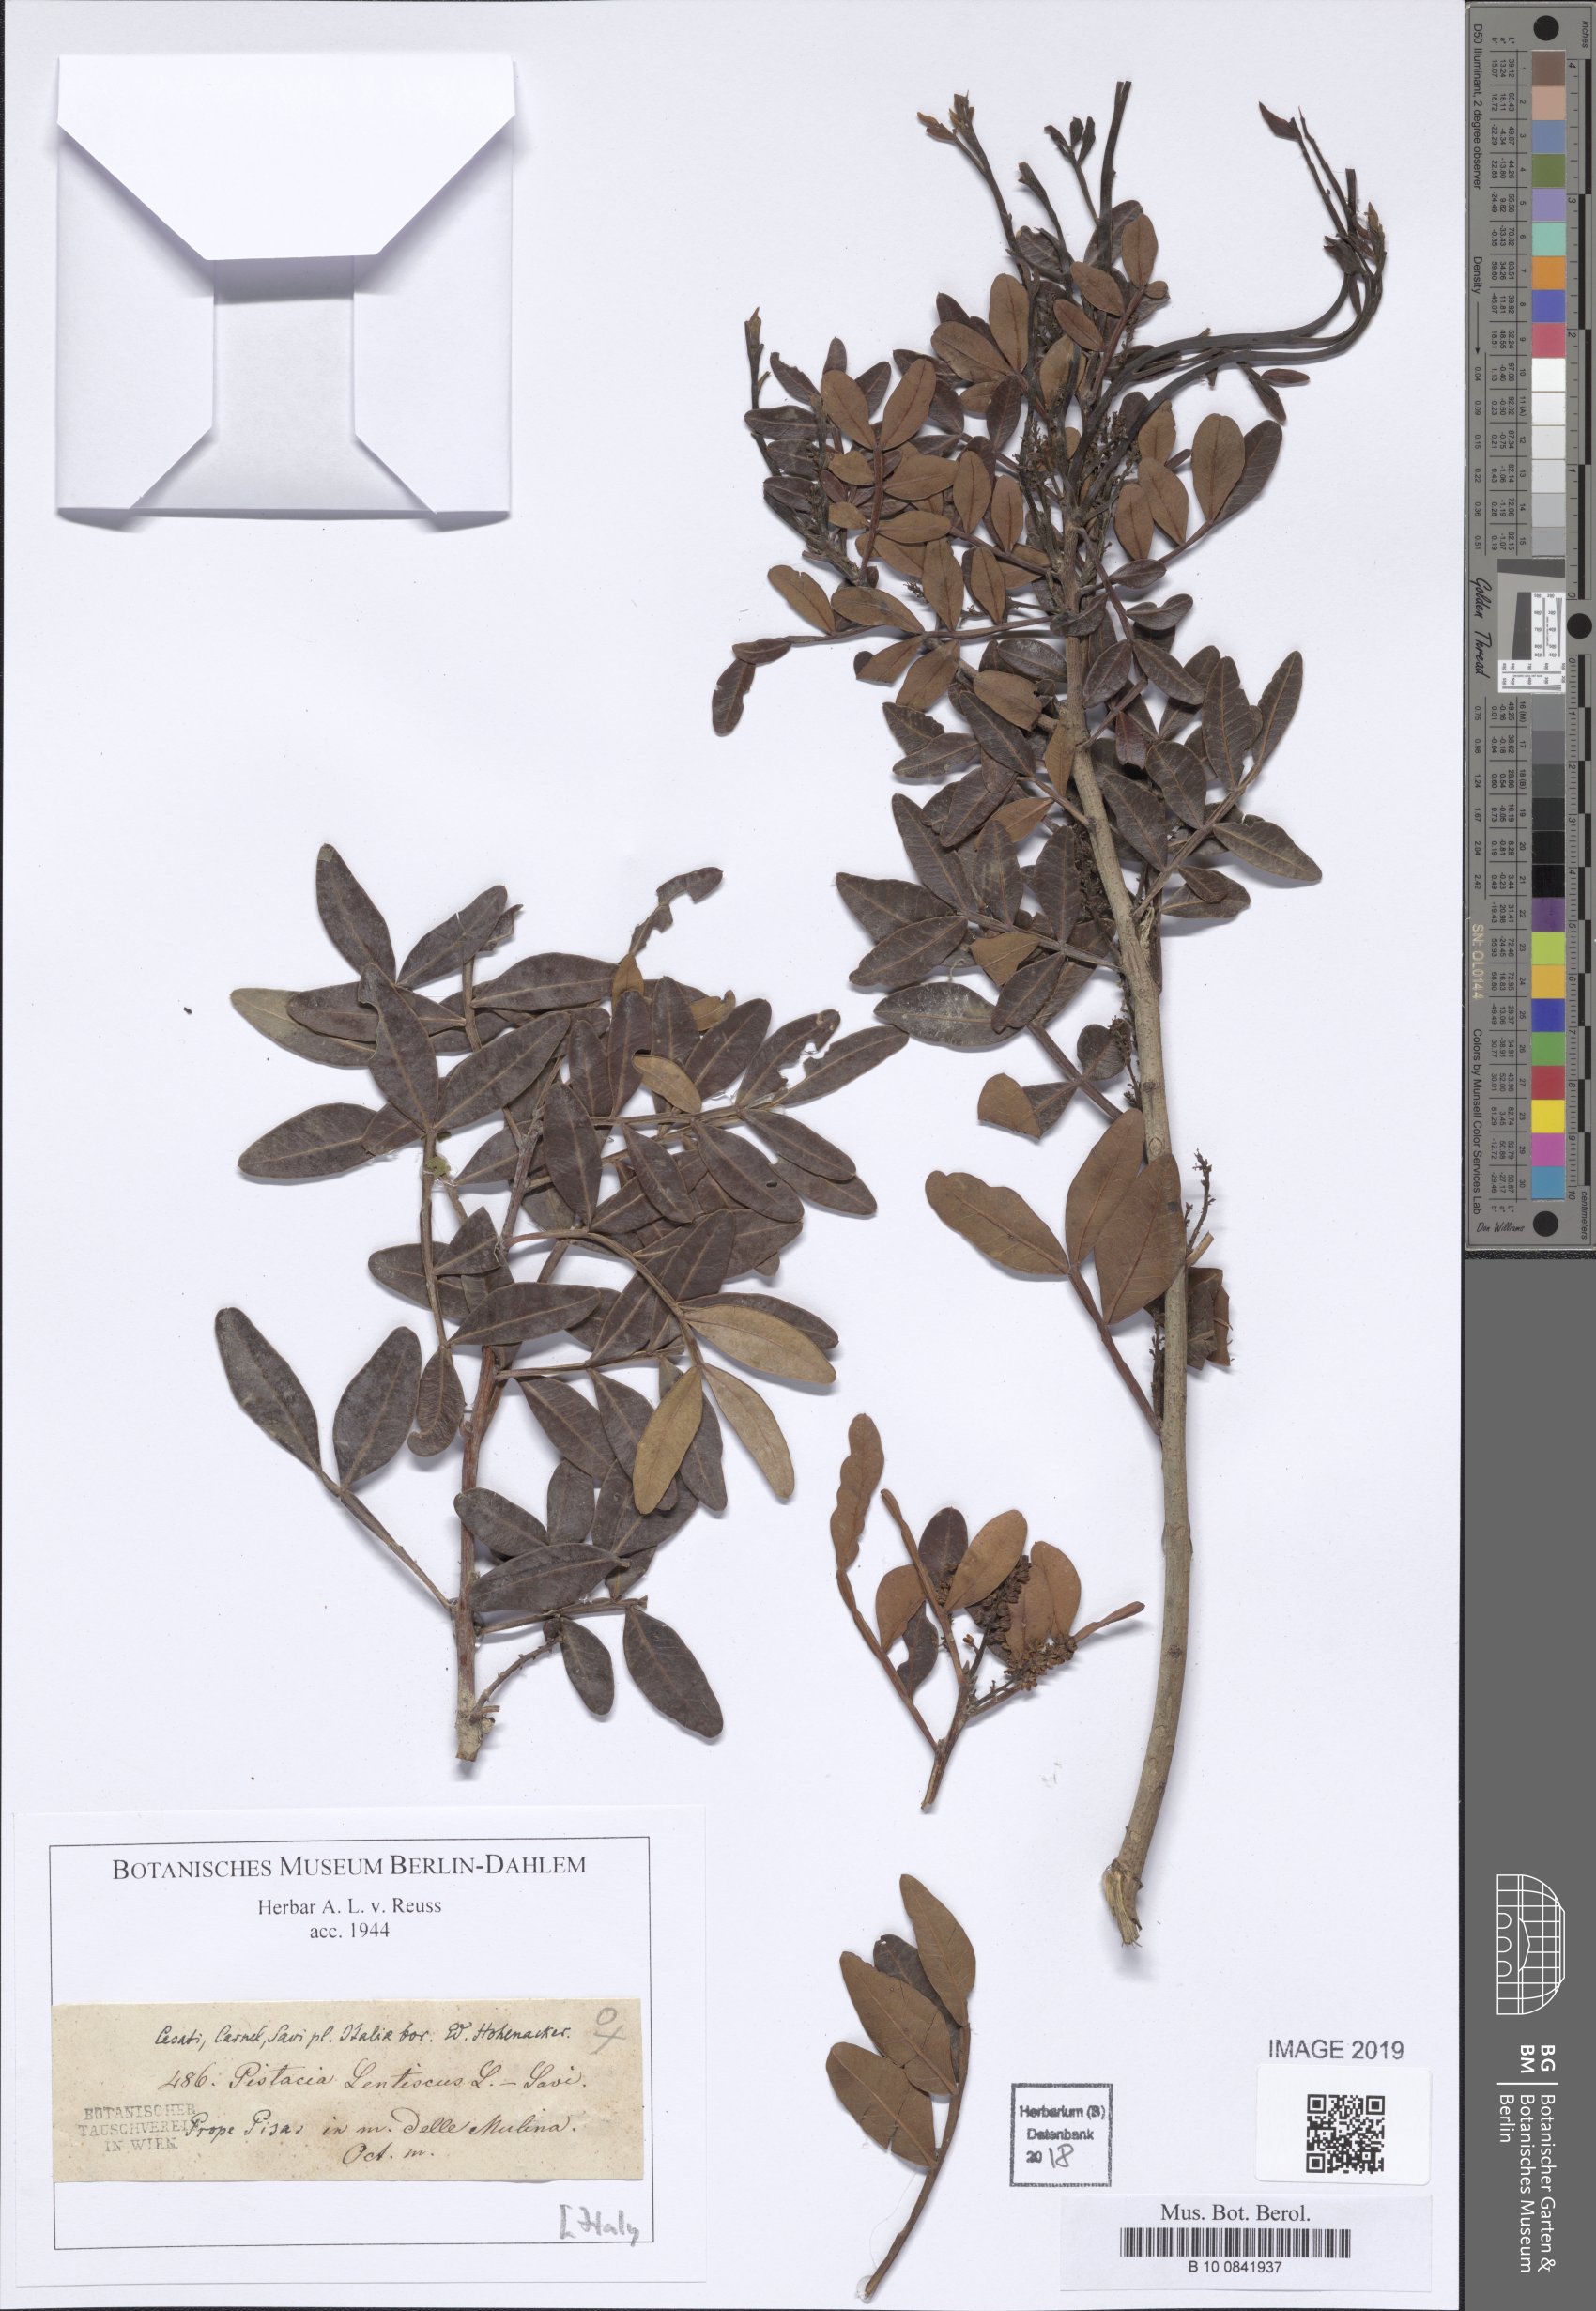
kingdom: Plantae
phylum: Tracheophyta
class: Magnoliopsida
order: Sapindales
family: Anacardiaceae
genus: Pistacia
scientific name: Pistacia lentiscus
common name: Lentisk
